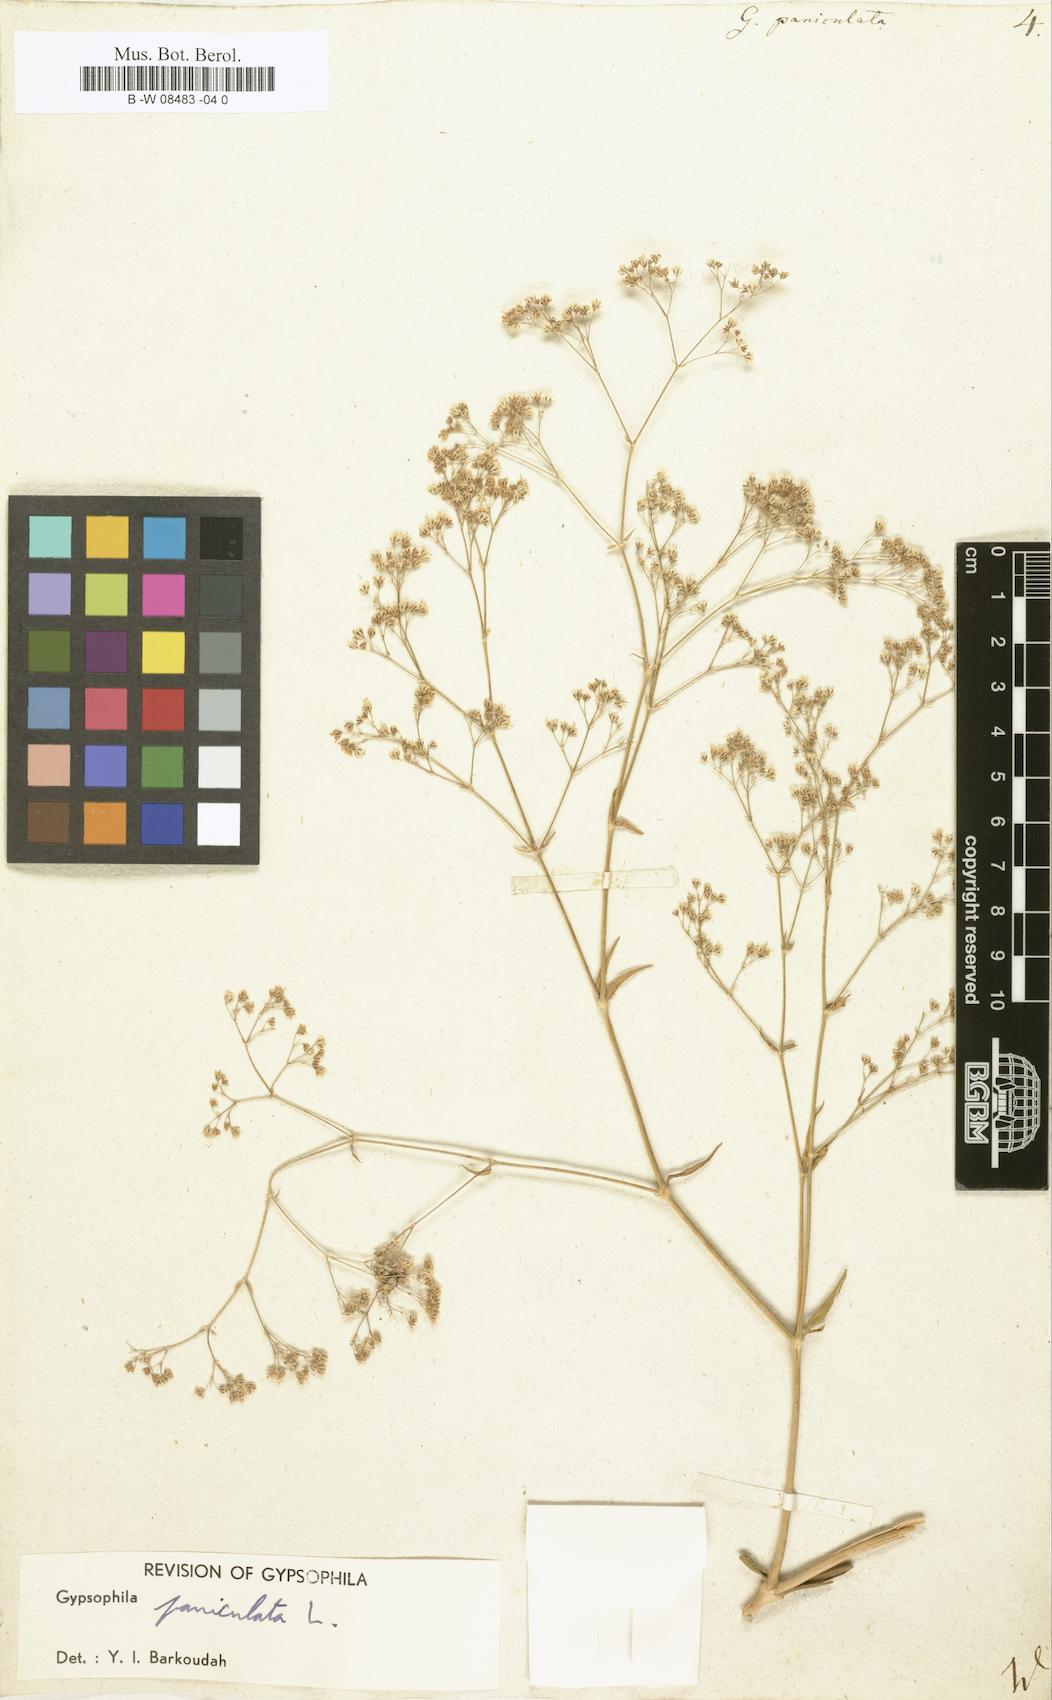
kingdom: Plantae
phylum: Tracheophyta
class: Magnoliopsida
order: Caryophyllales
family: Caryophyllaceae
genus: Gypsophila
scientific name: Gypsophila paniculata
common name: Baby's-breath
